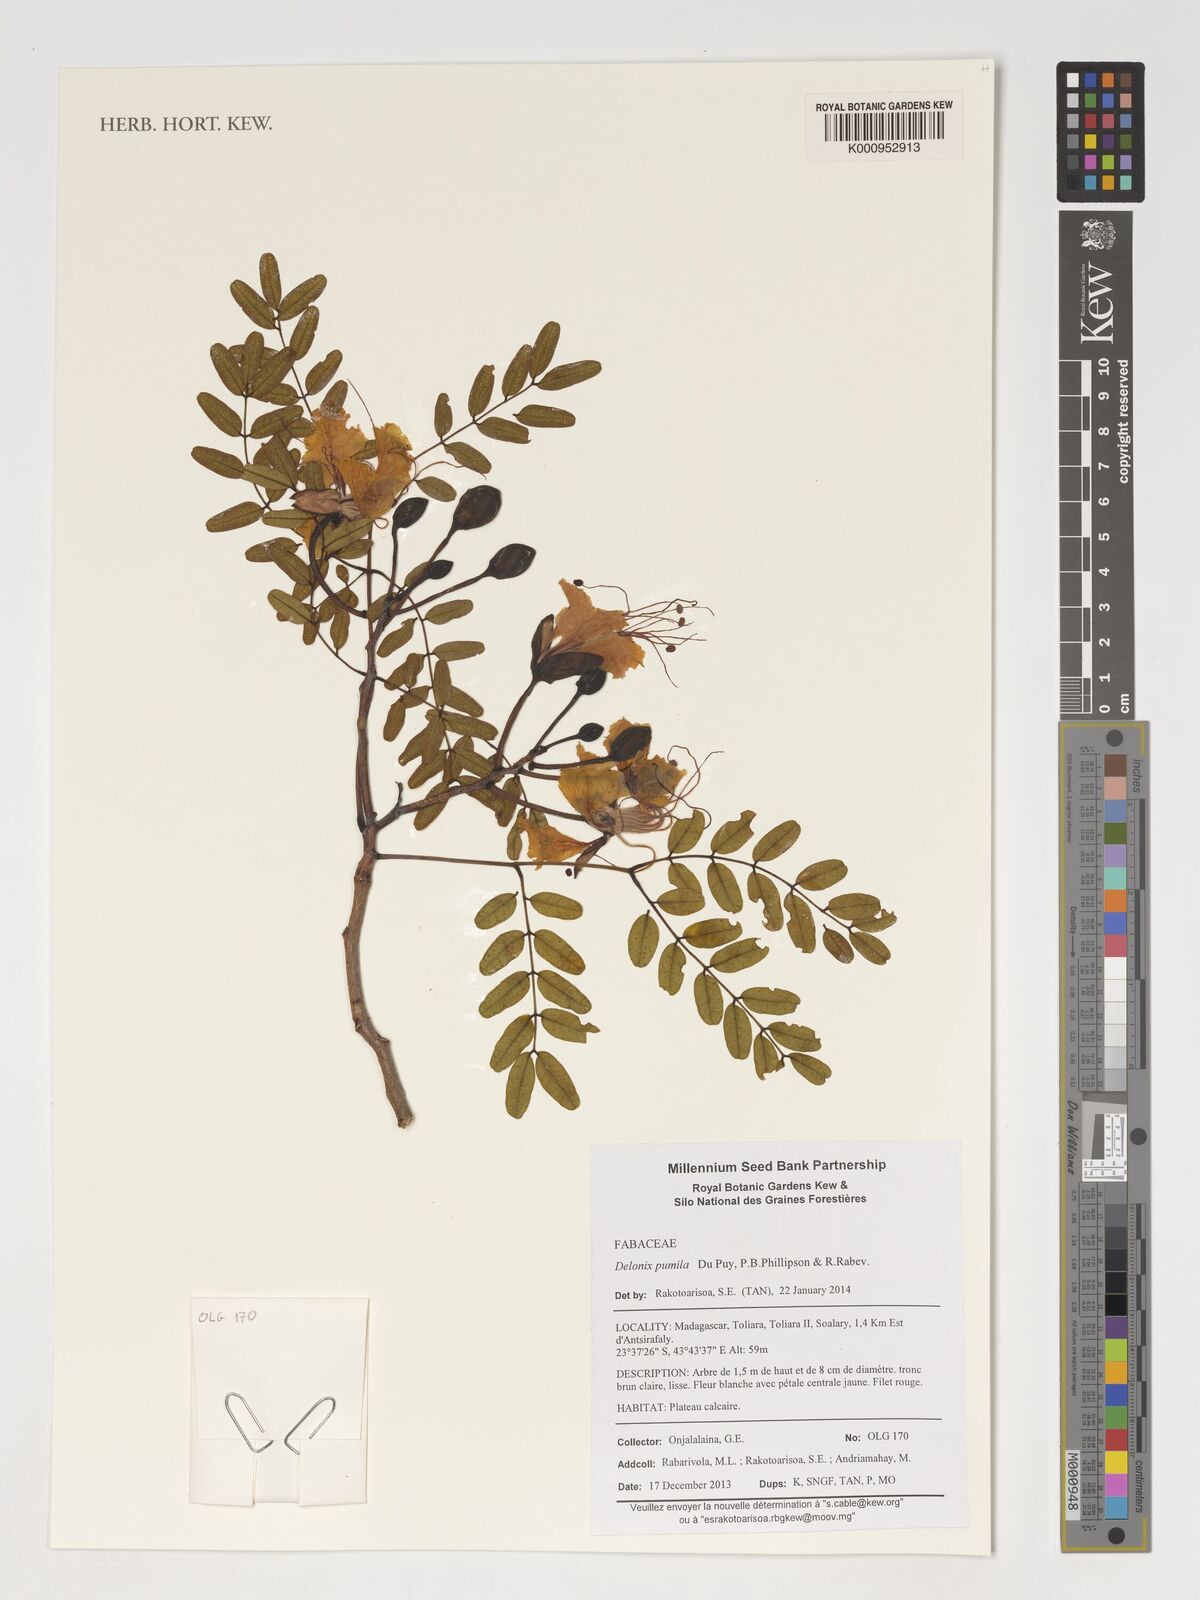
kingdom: Plantae
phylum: Tracheophyta
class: Magnoliopsida
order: Fabales
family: Fabaceae
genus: Delonix
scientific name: Delonix pumila
